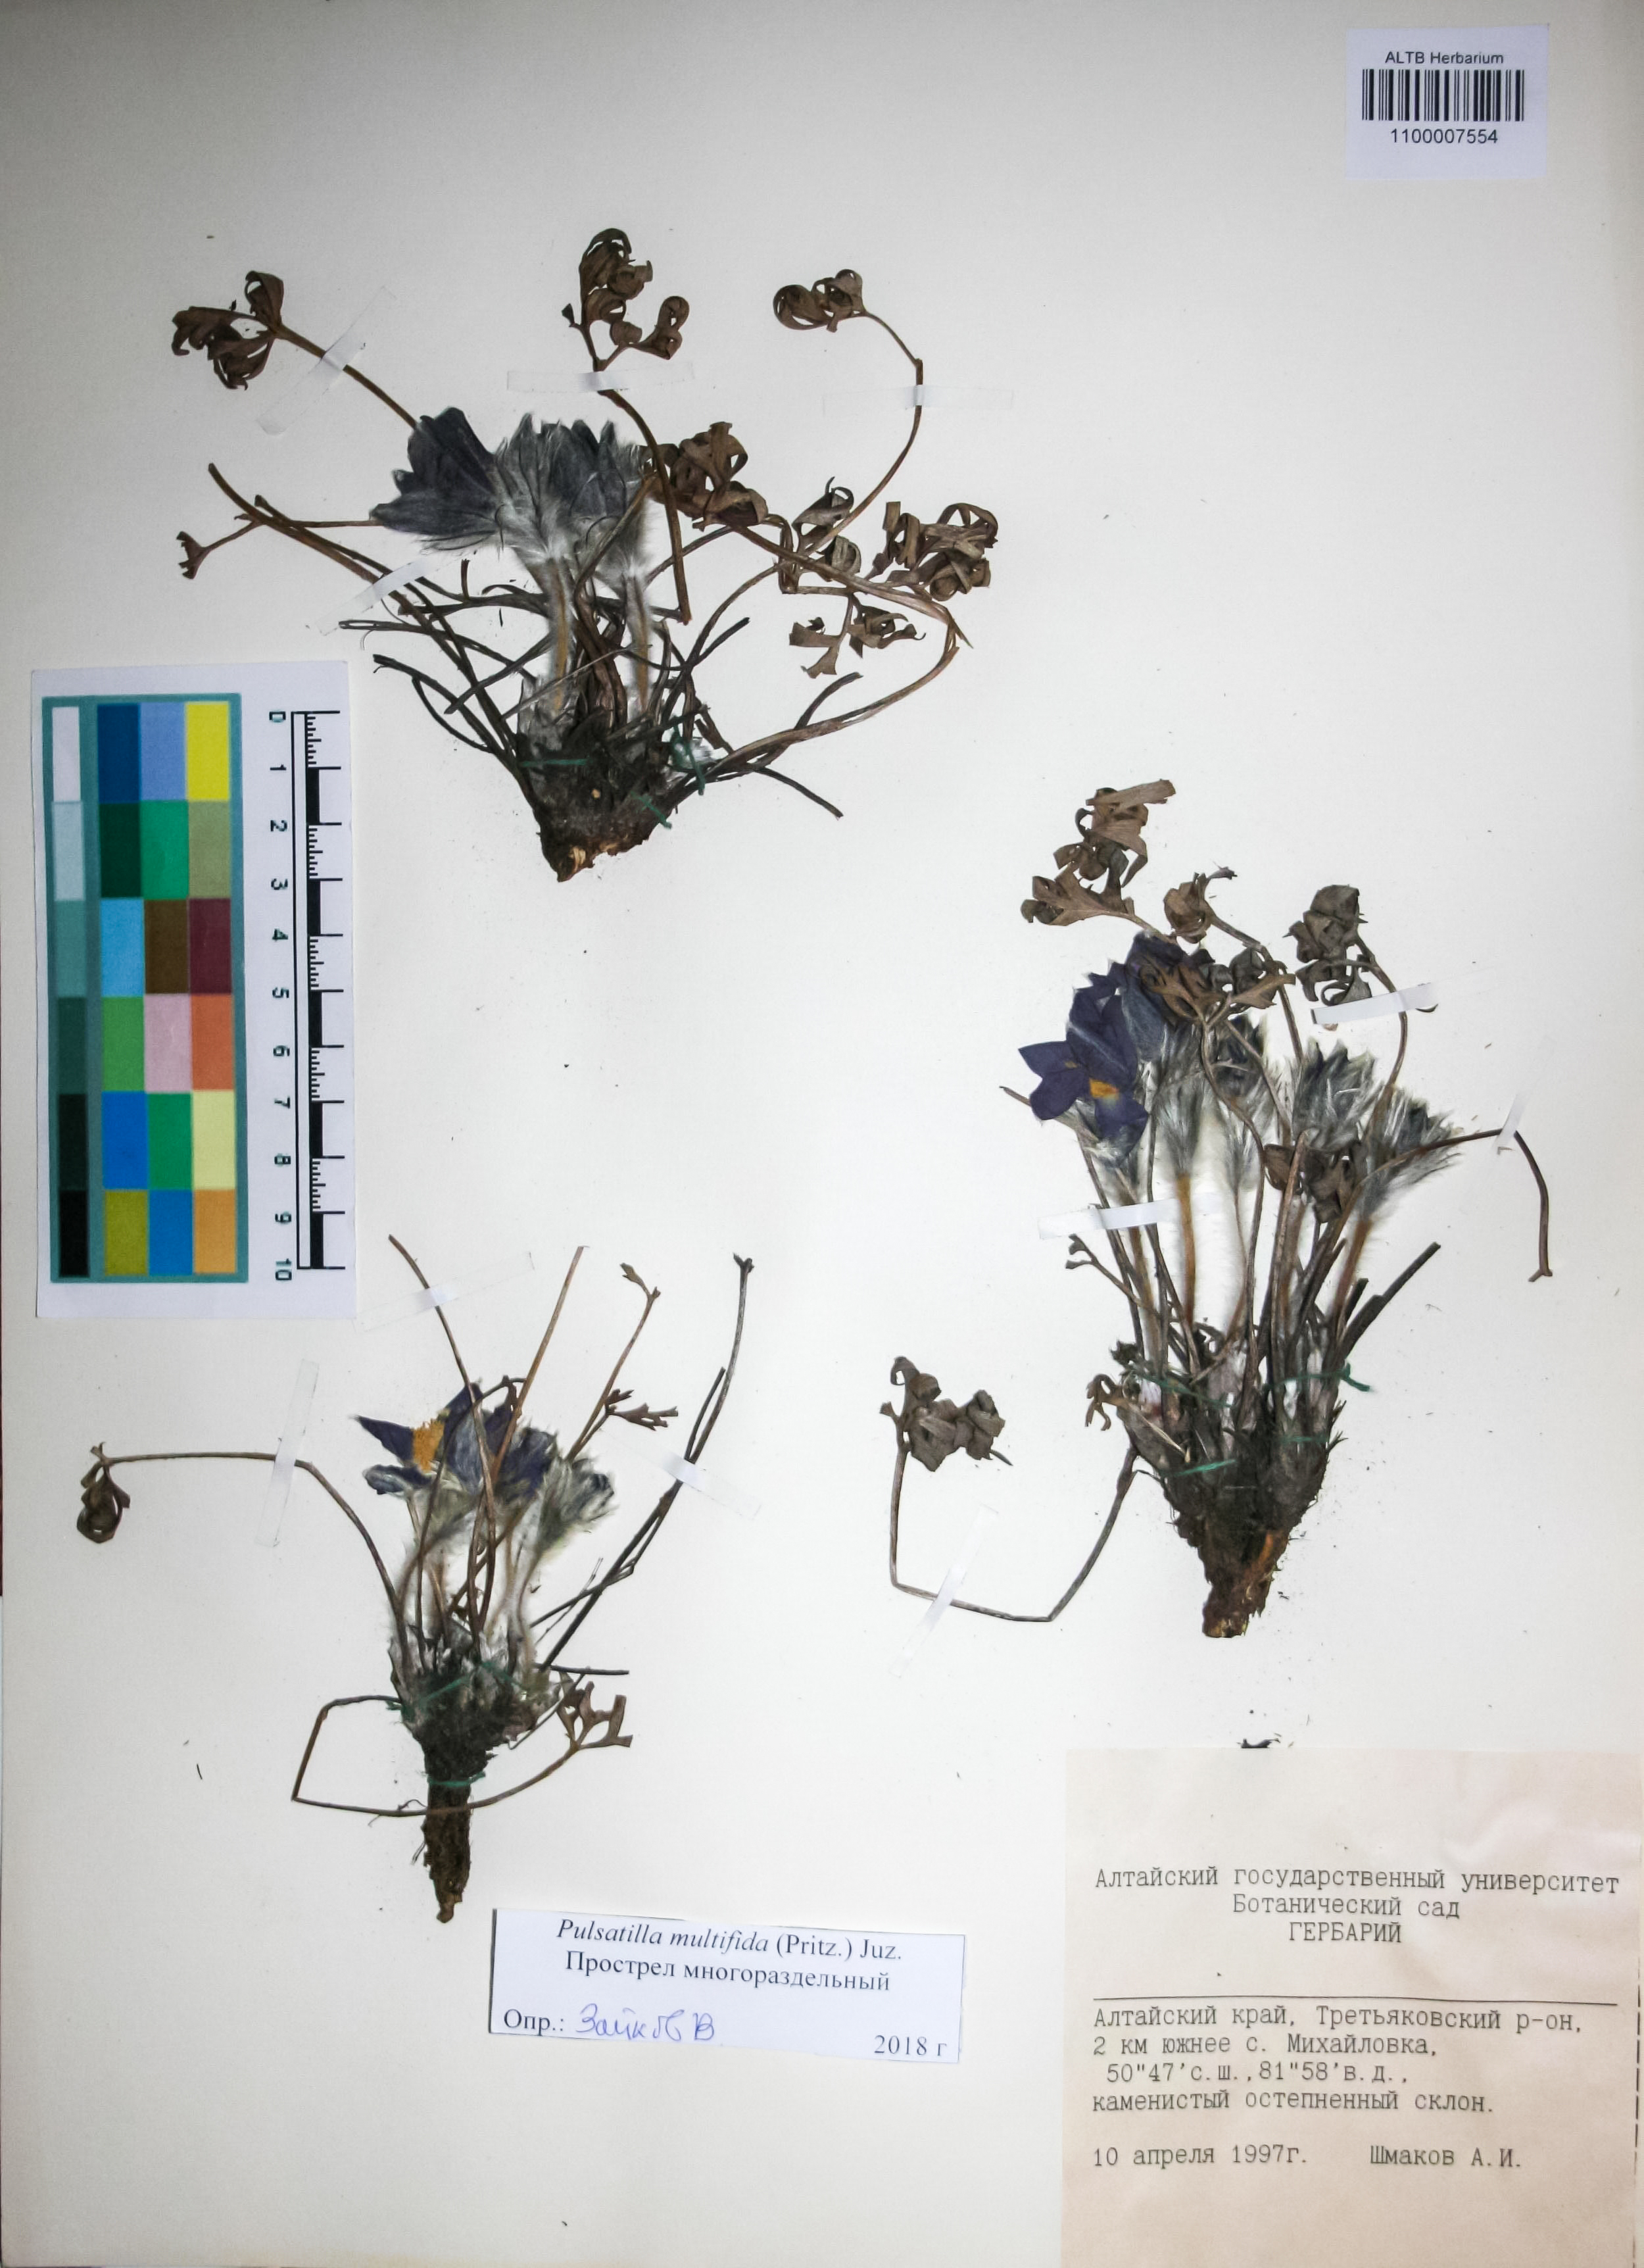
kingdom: Plantae
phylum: Tracheophyta
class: Magnoliopsida
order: Ranunculales
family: Ranunculaceae
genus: Pulsatilla
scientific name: Pulsatilla patens
